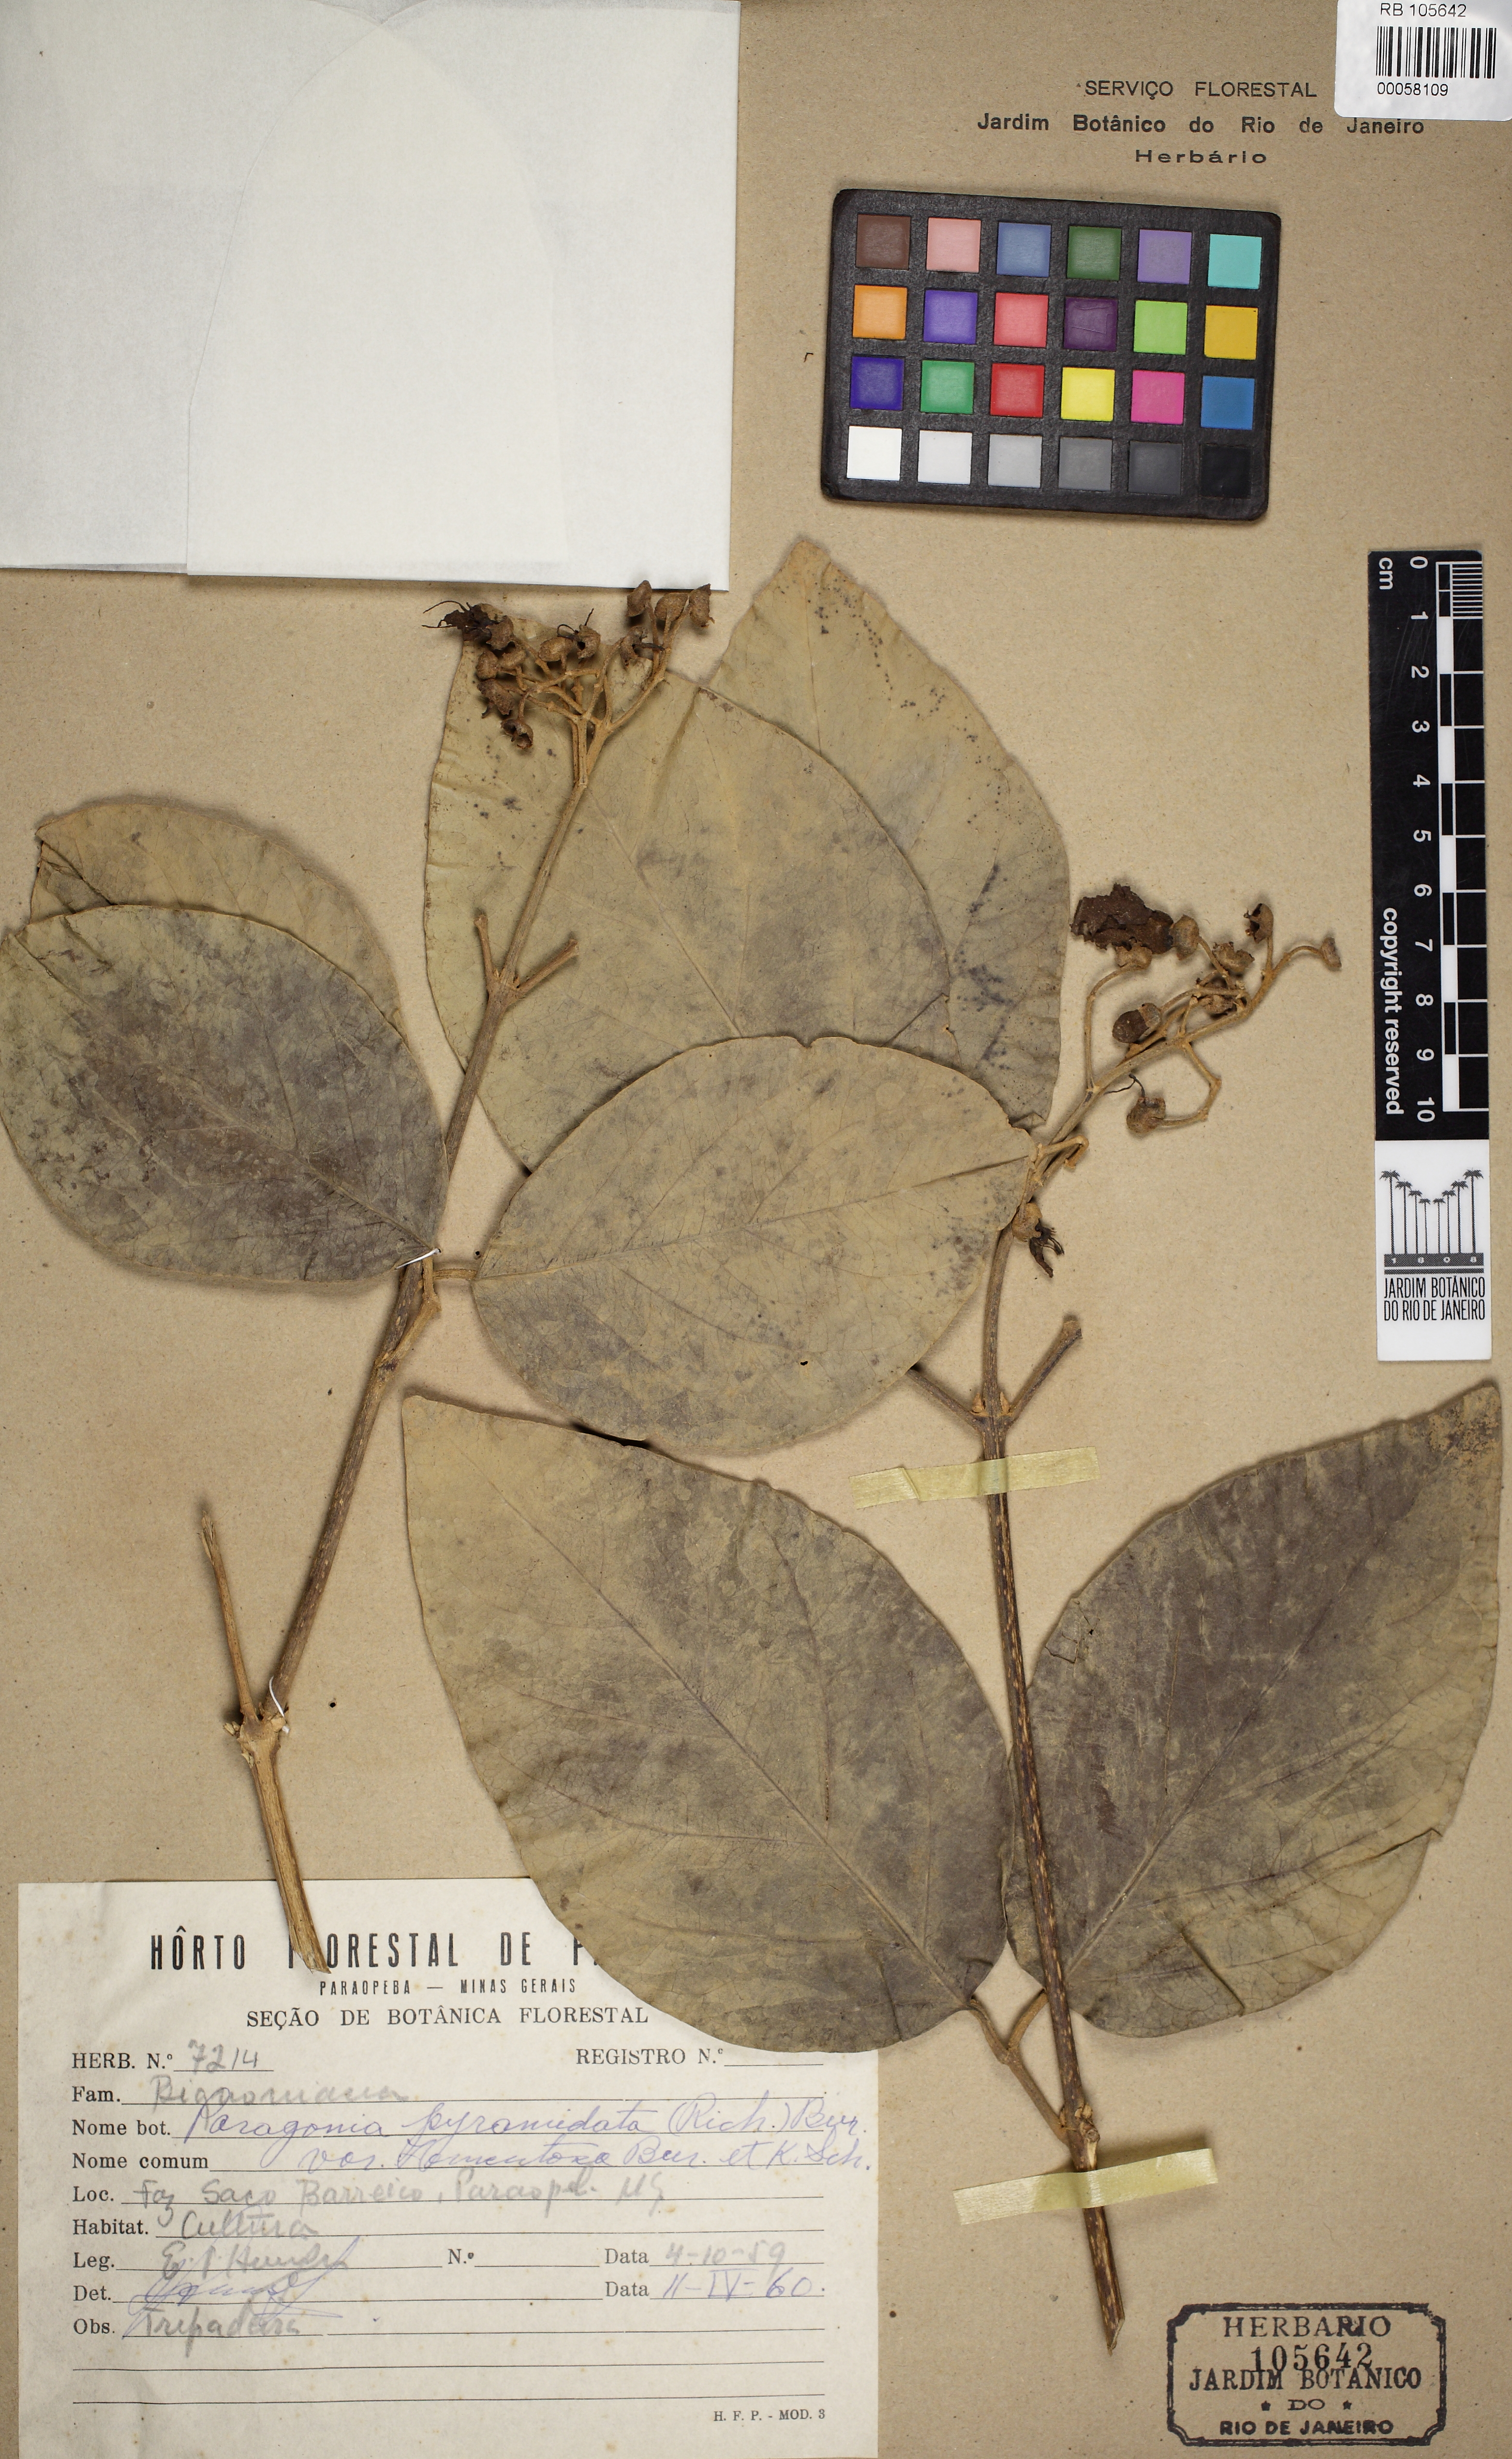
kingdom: Plantae
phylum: Tracheophyta
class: Magnoliopsida
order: Lamiales
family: Bignoniaceae
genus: Tanaecium
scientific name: Tanaecium pyramidatum
